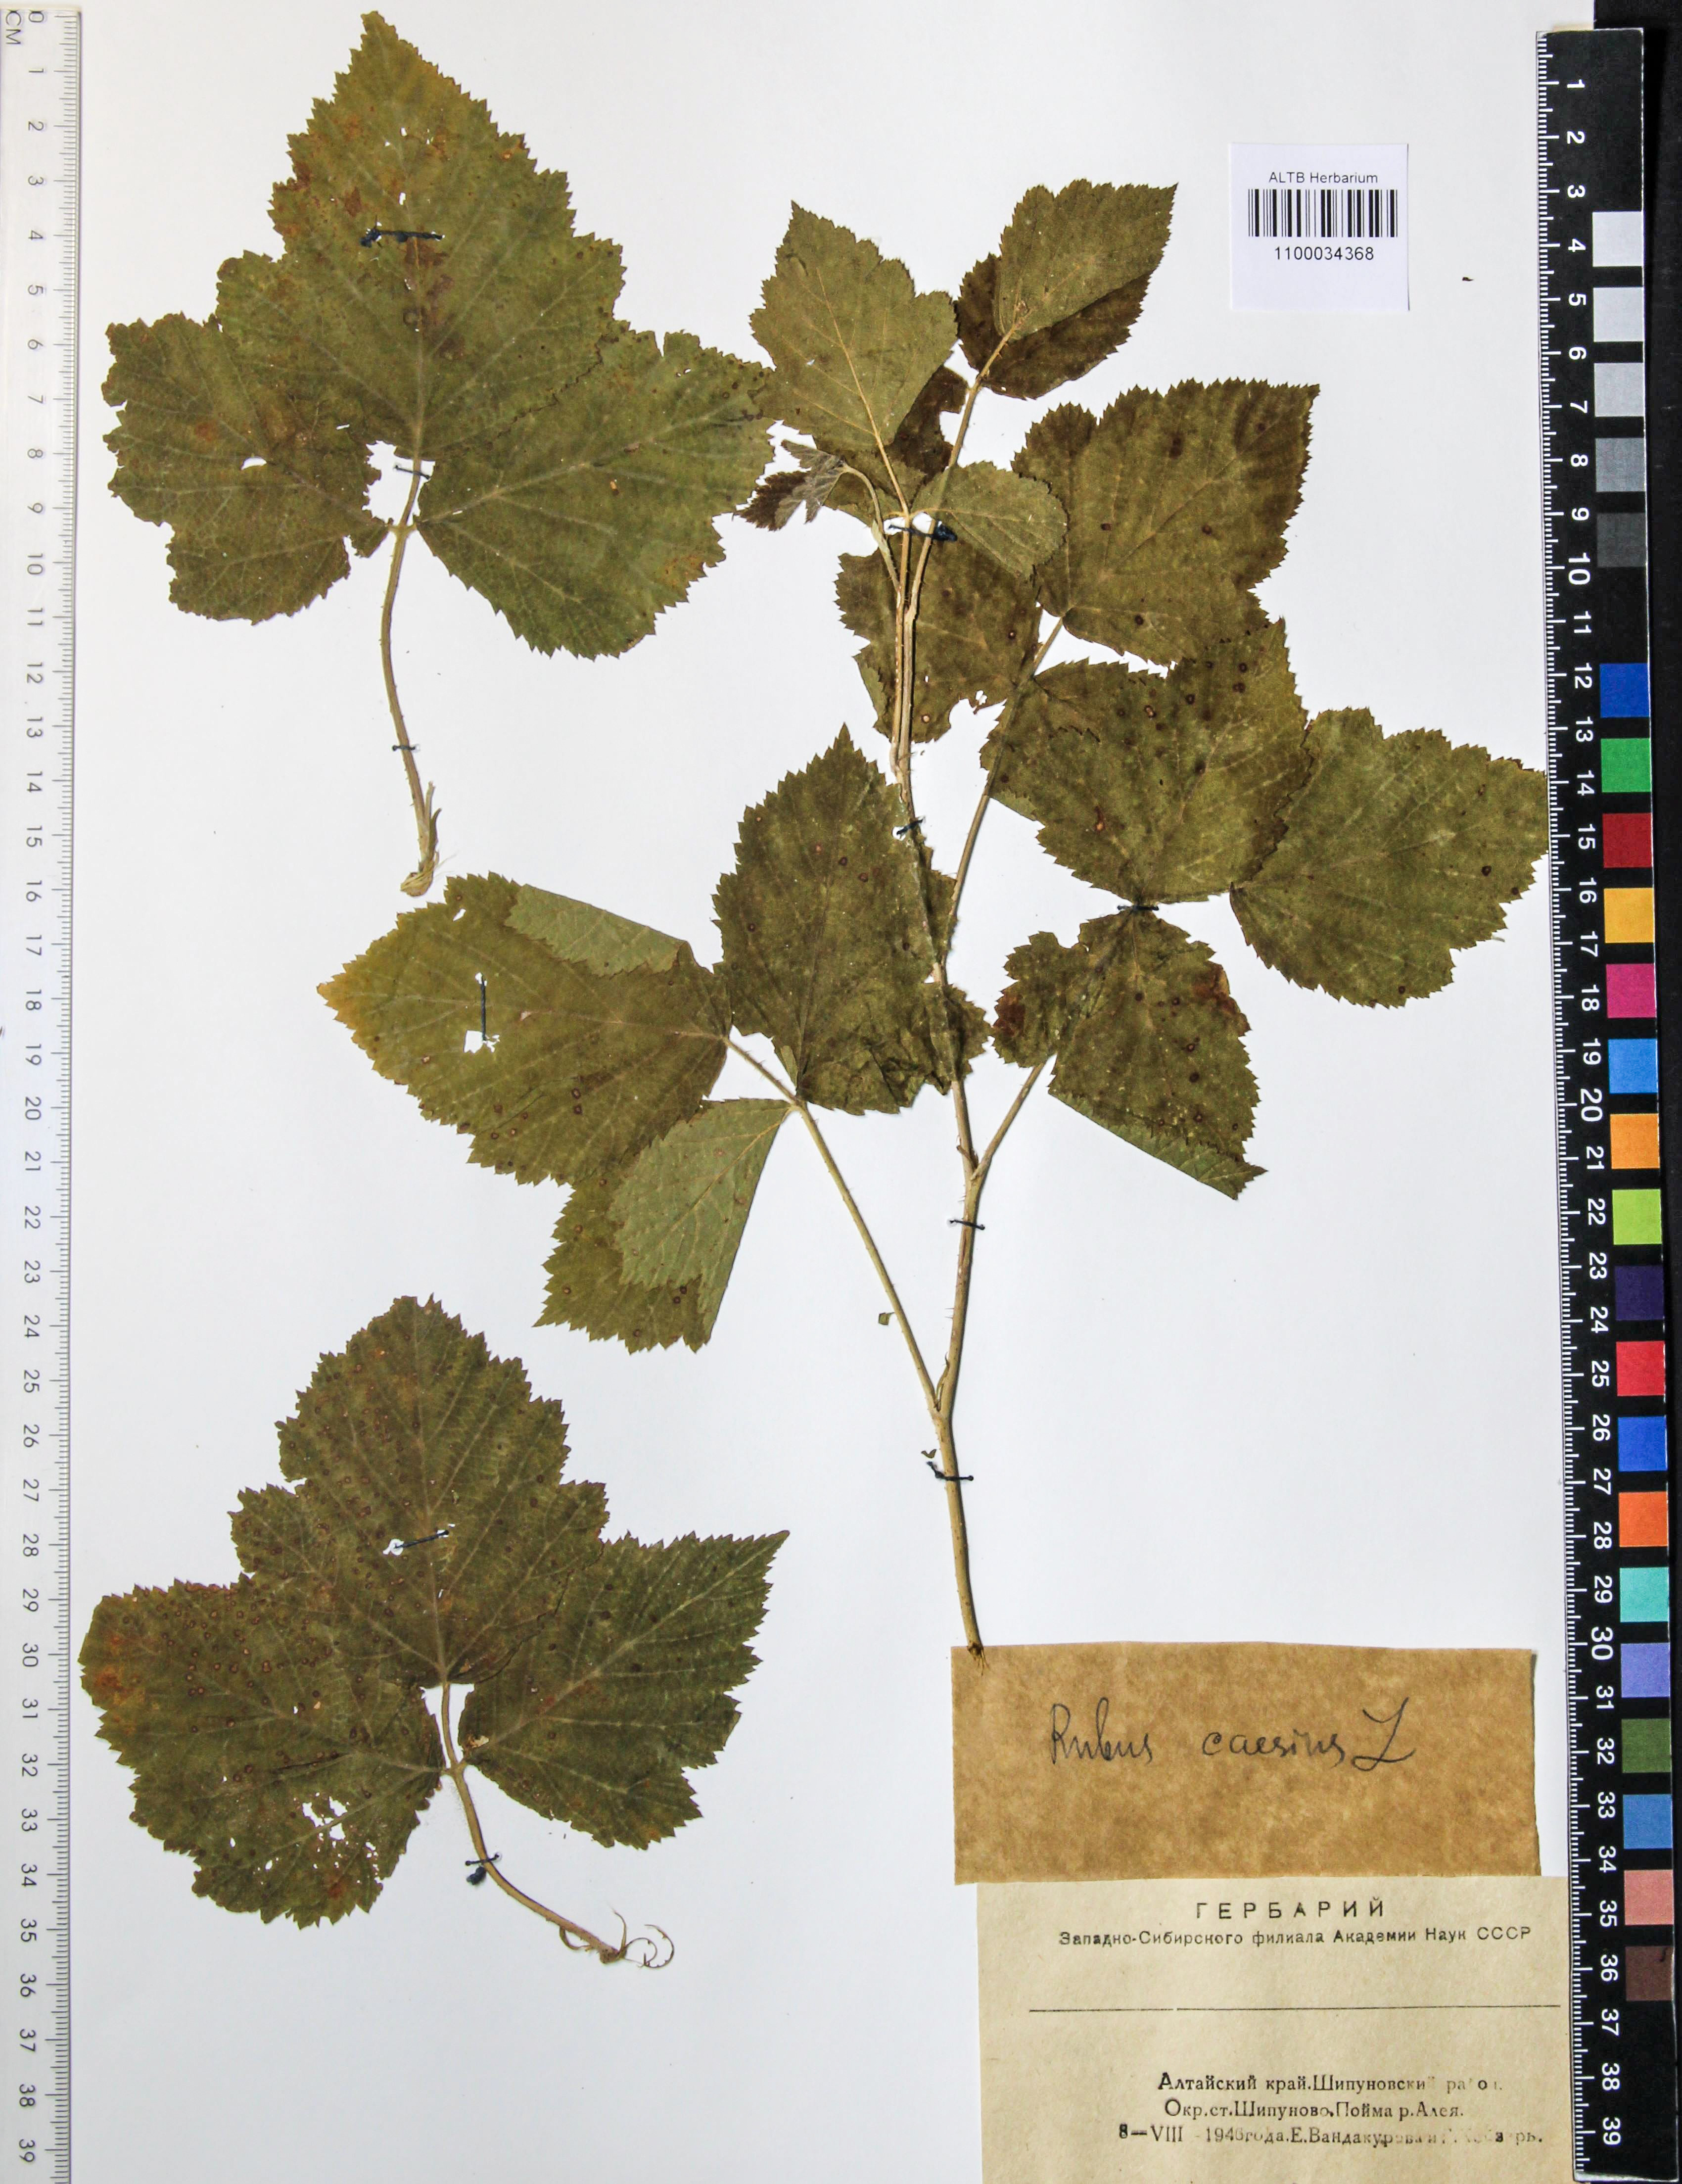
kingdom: Plantae
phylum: Tracheophyta
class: Magnoliopsida
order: Rosales
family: Rosaceae
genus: Rubus
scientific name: Rubus caesius
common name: Dewberry
